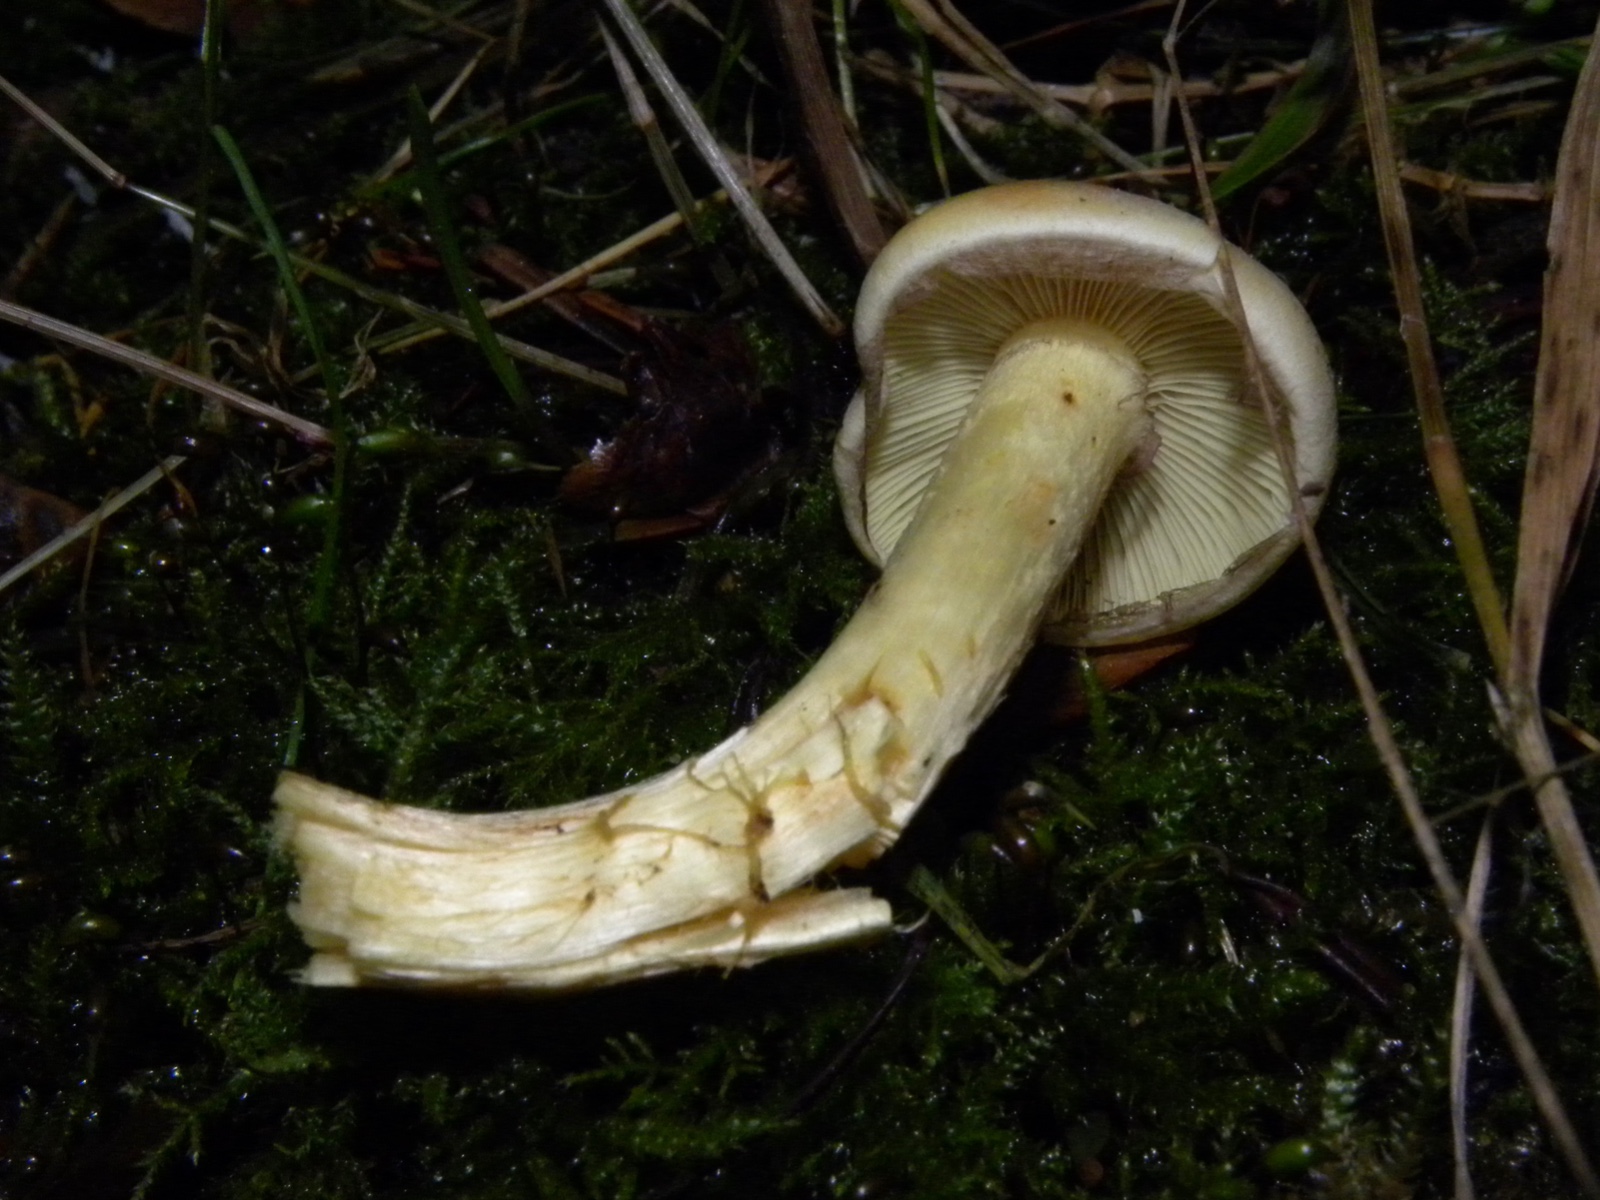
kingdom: Fungi
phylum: Basidiomycota
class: Agaricomycetes
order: Agaricales
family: Strophariaceae
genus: Hypholoma
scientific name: Hypholoma fasciculare
